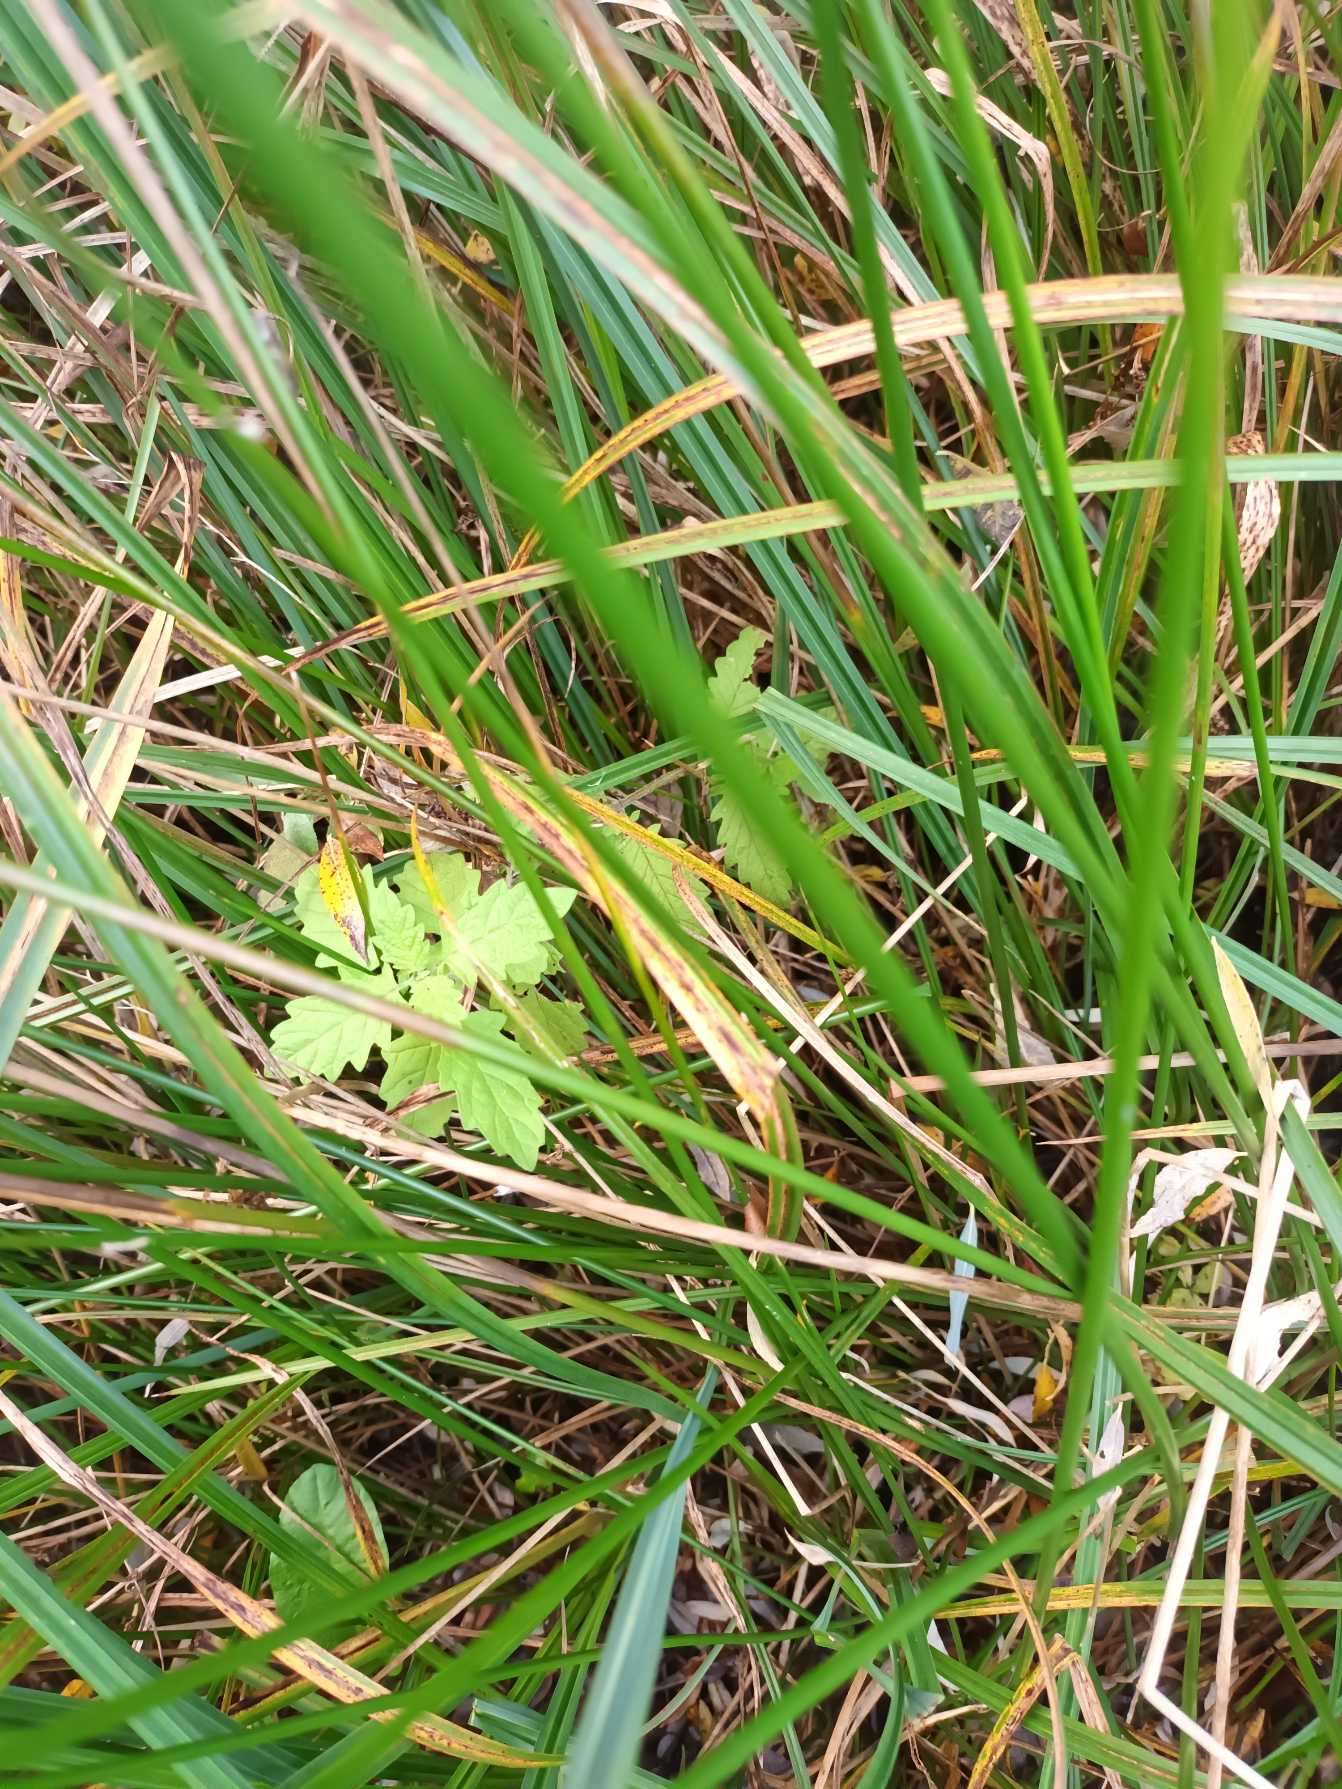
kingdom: Plantae
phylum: Tracheophyta
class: Magnoliopsida
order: Lamiales
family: Lamiaceae
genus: Lycopus
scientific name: Lycopus europaeus
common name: Sværtevæld
